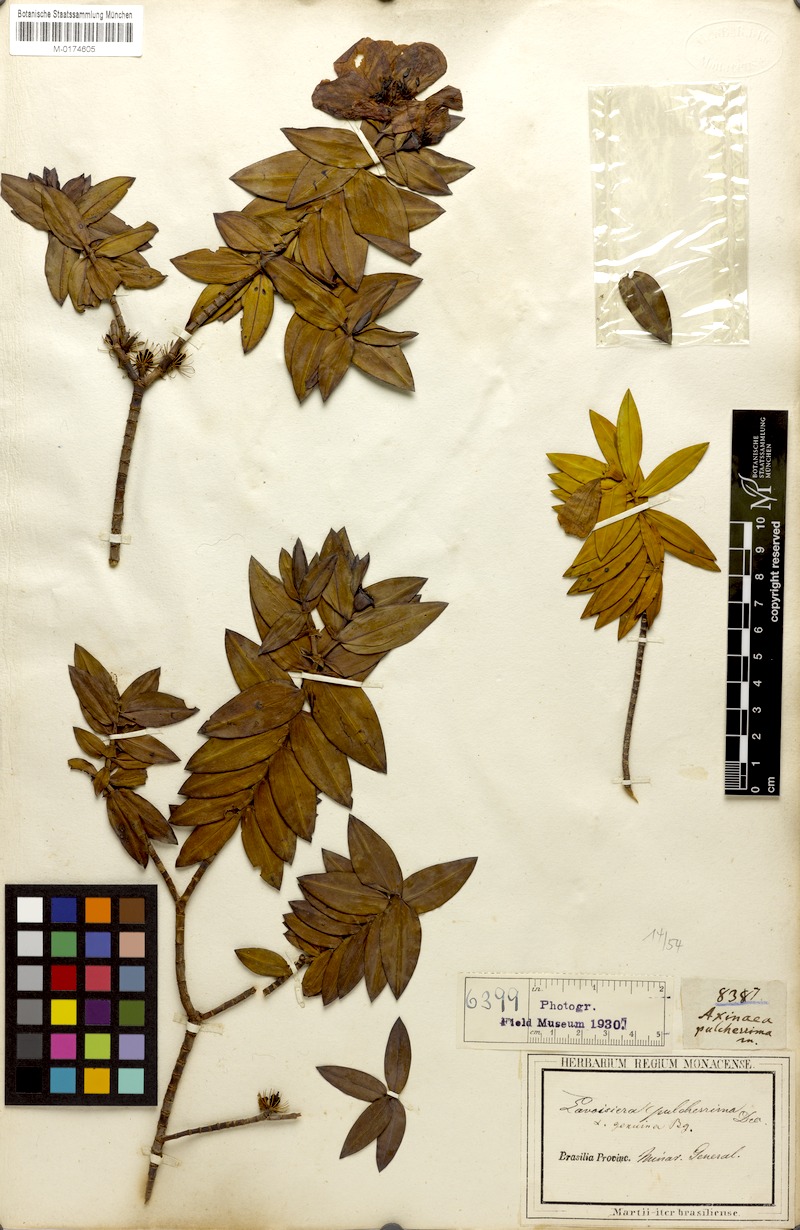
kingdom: Plantae
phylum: Tracheophyta
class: Magnoliopsida
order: Myrtales
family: Melastomataceae
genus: Microlicia
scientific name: Microlicia pulcherrima
